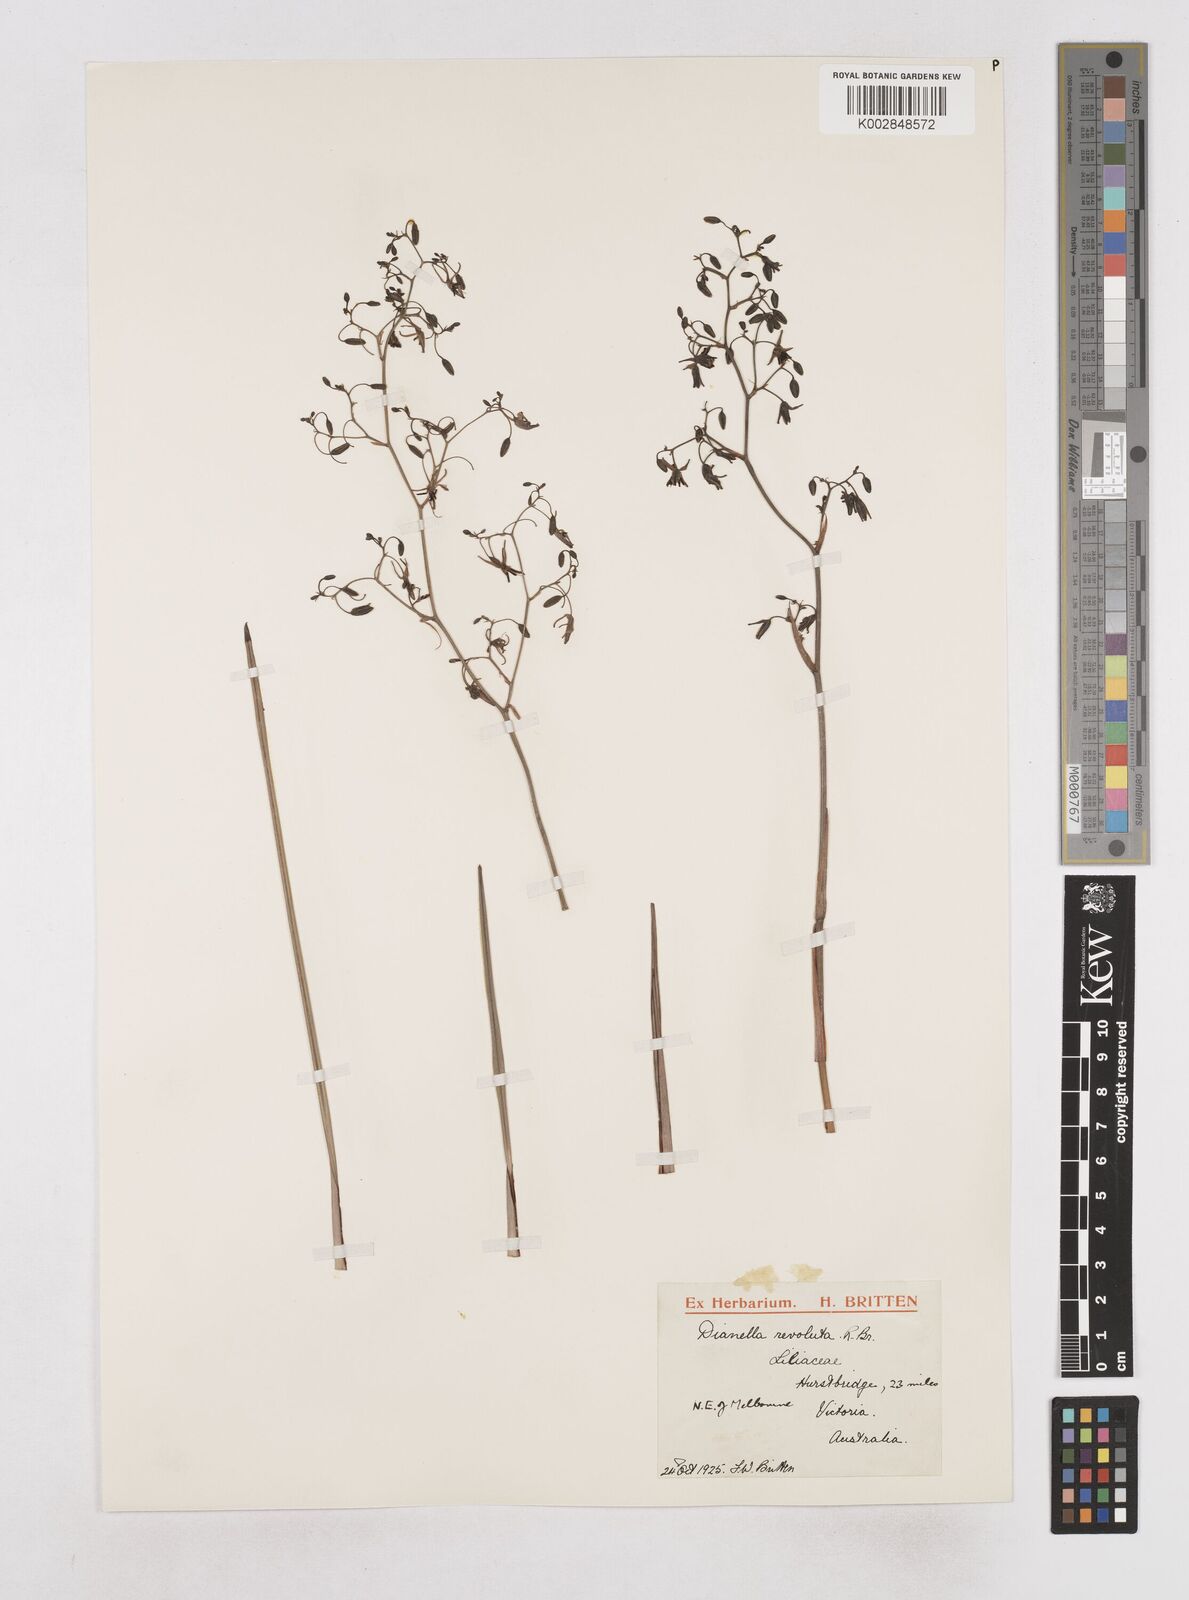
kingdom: Plantae
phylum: Tracheophyta
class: Liliopsida
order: Asparagales
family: Asphodelaceae
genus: Dianella
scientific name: Dianella revoluta
